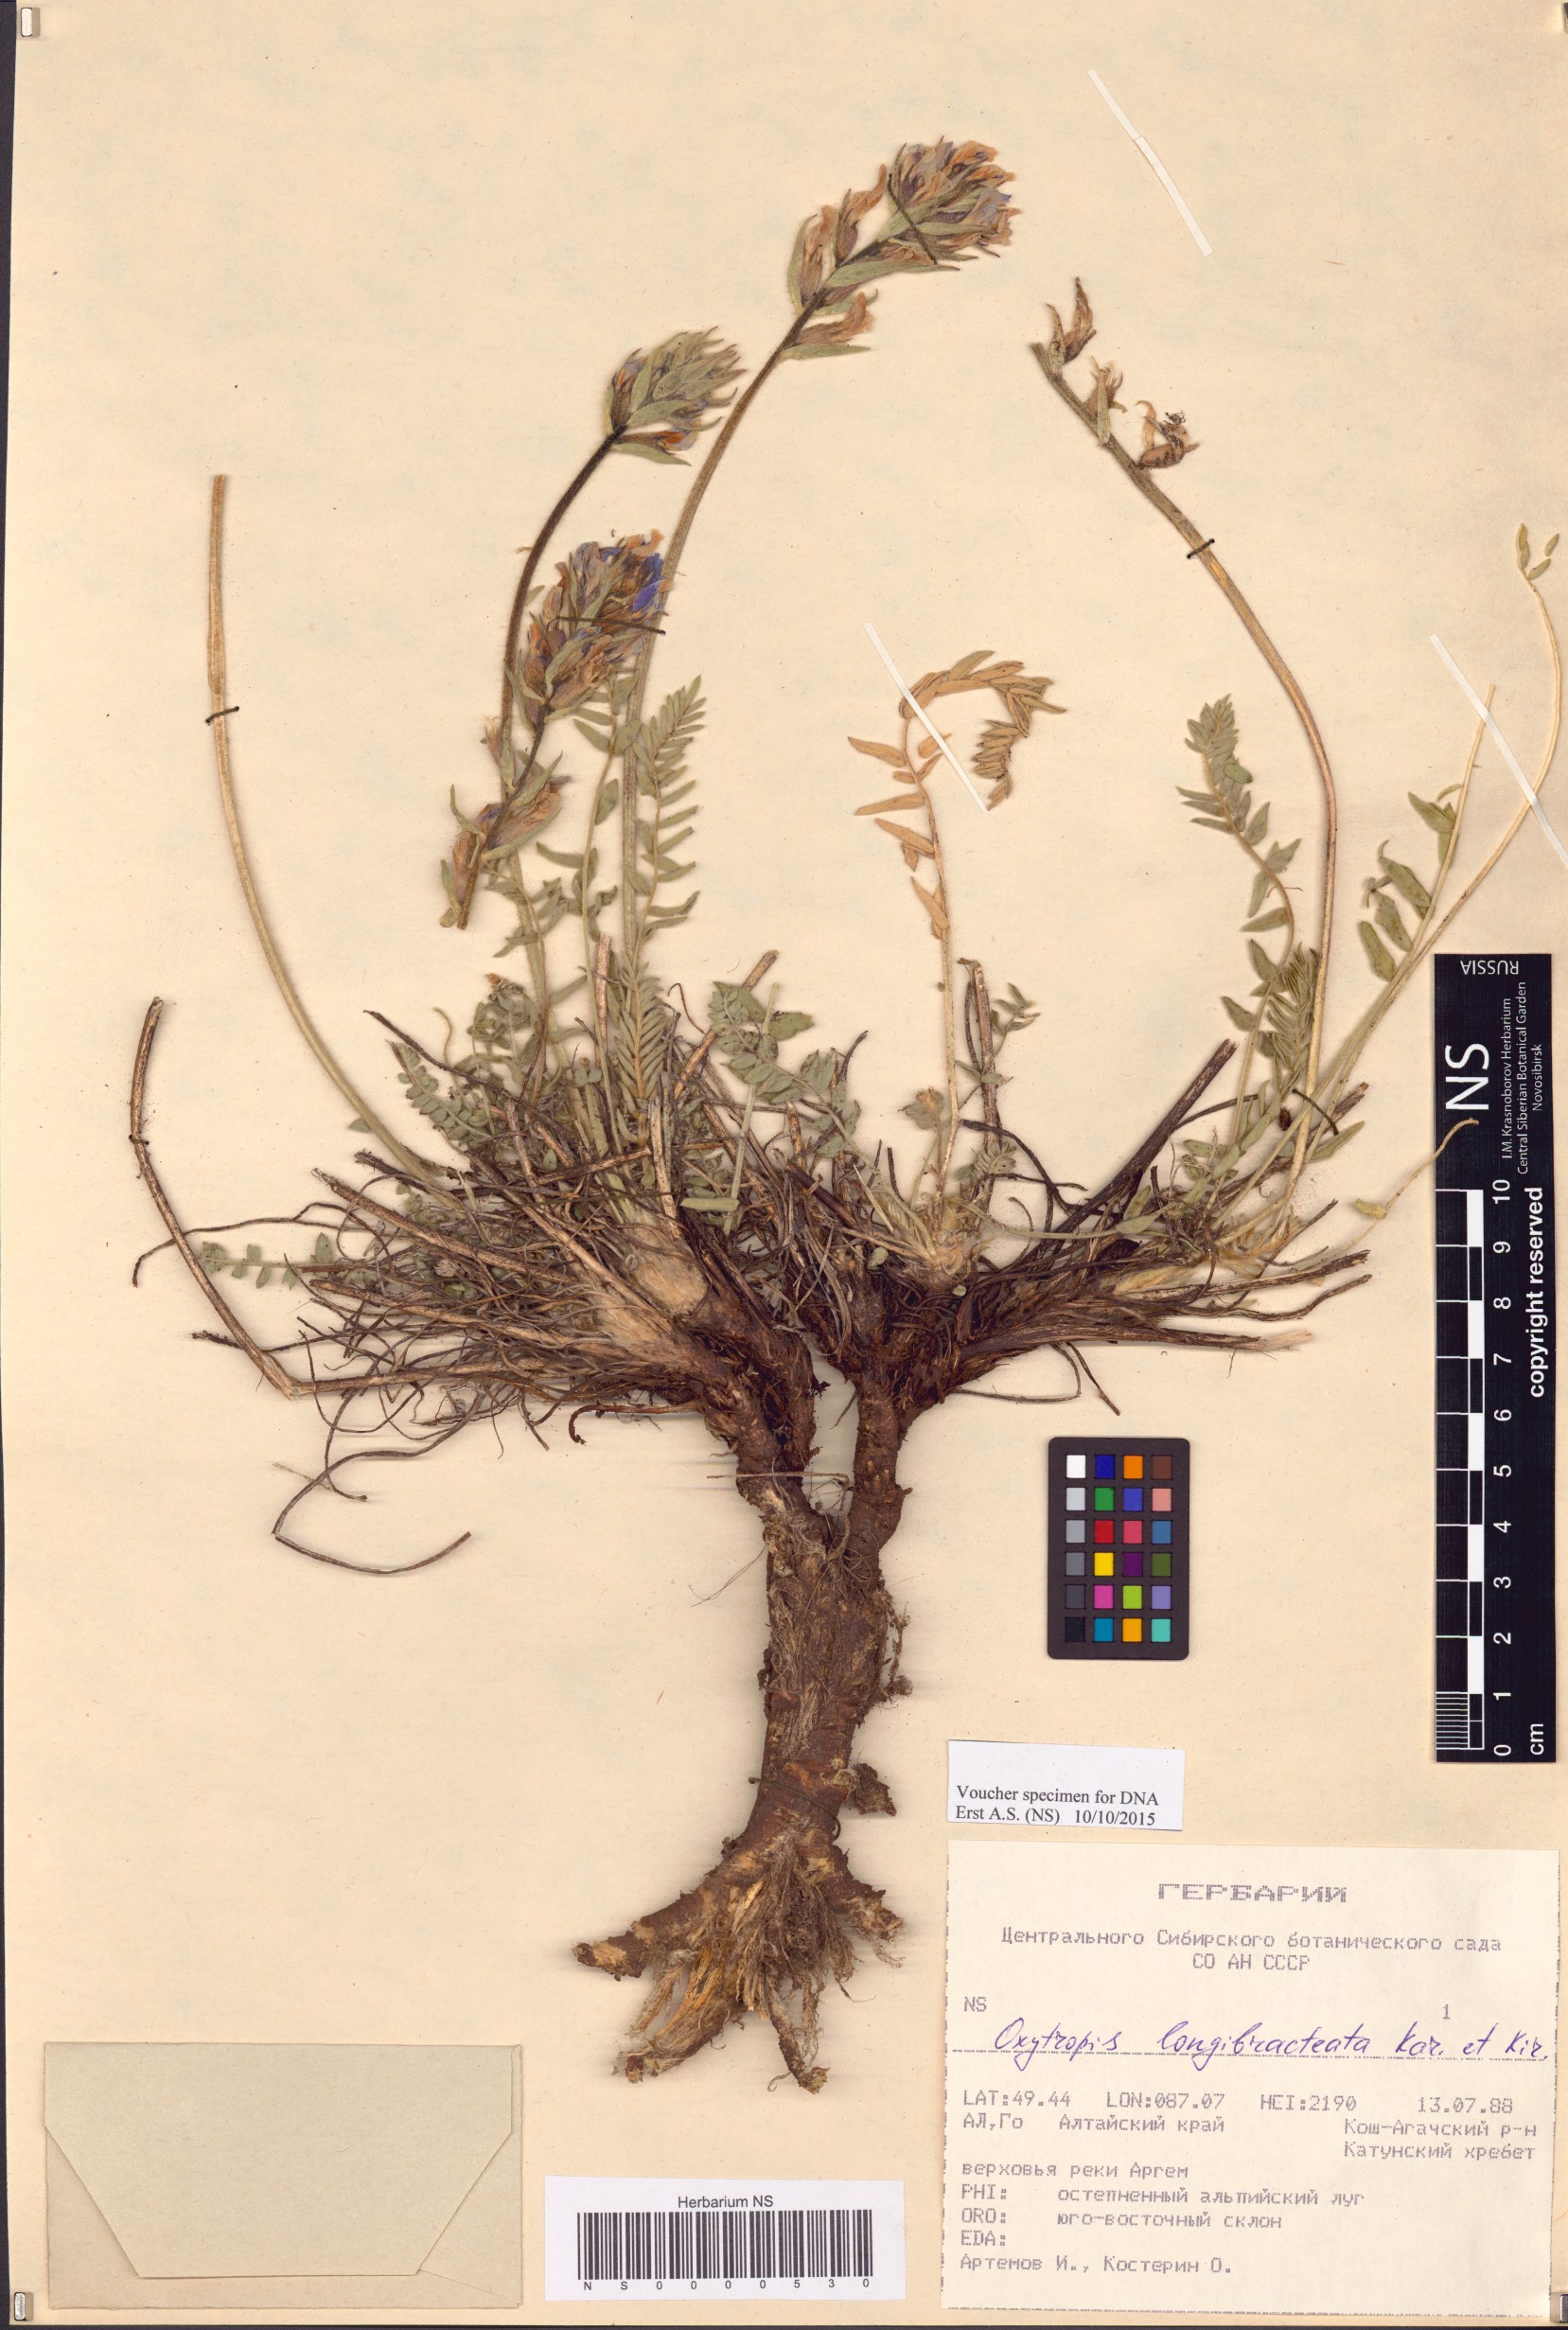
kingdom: Plantae
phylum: Tracheophyta
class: Magnoliopsida
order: Fabales
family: Fabaceae
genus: Oxytropis
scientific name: Oxytropis longibracteata
